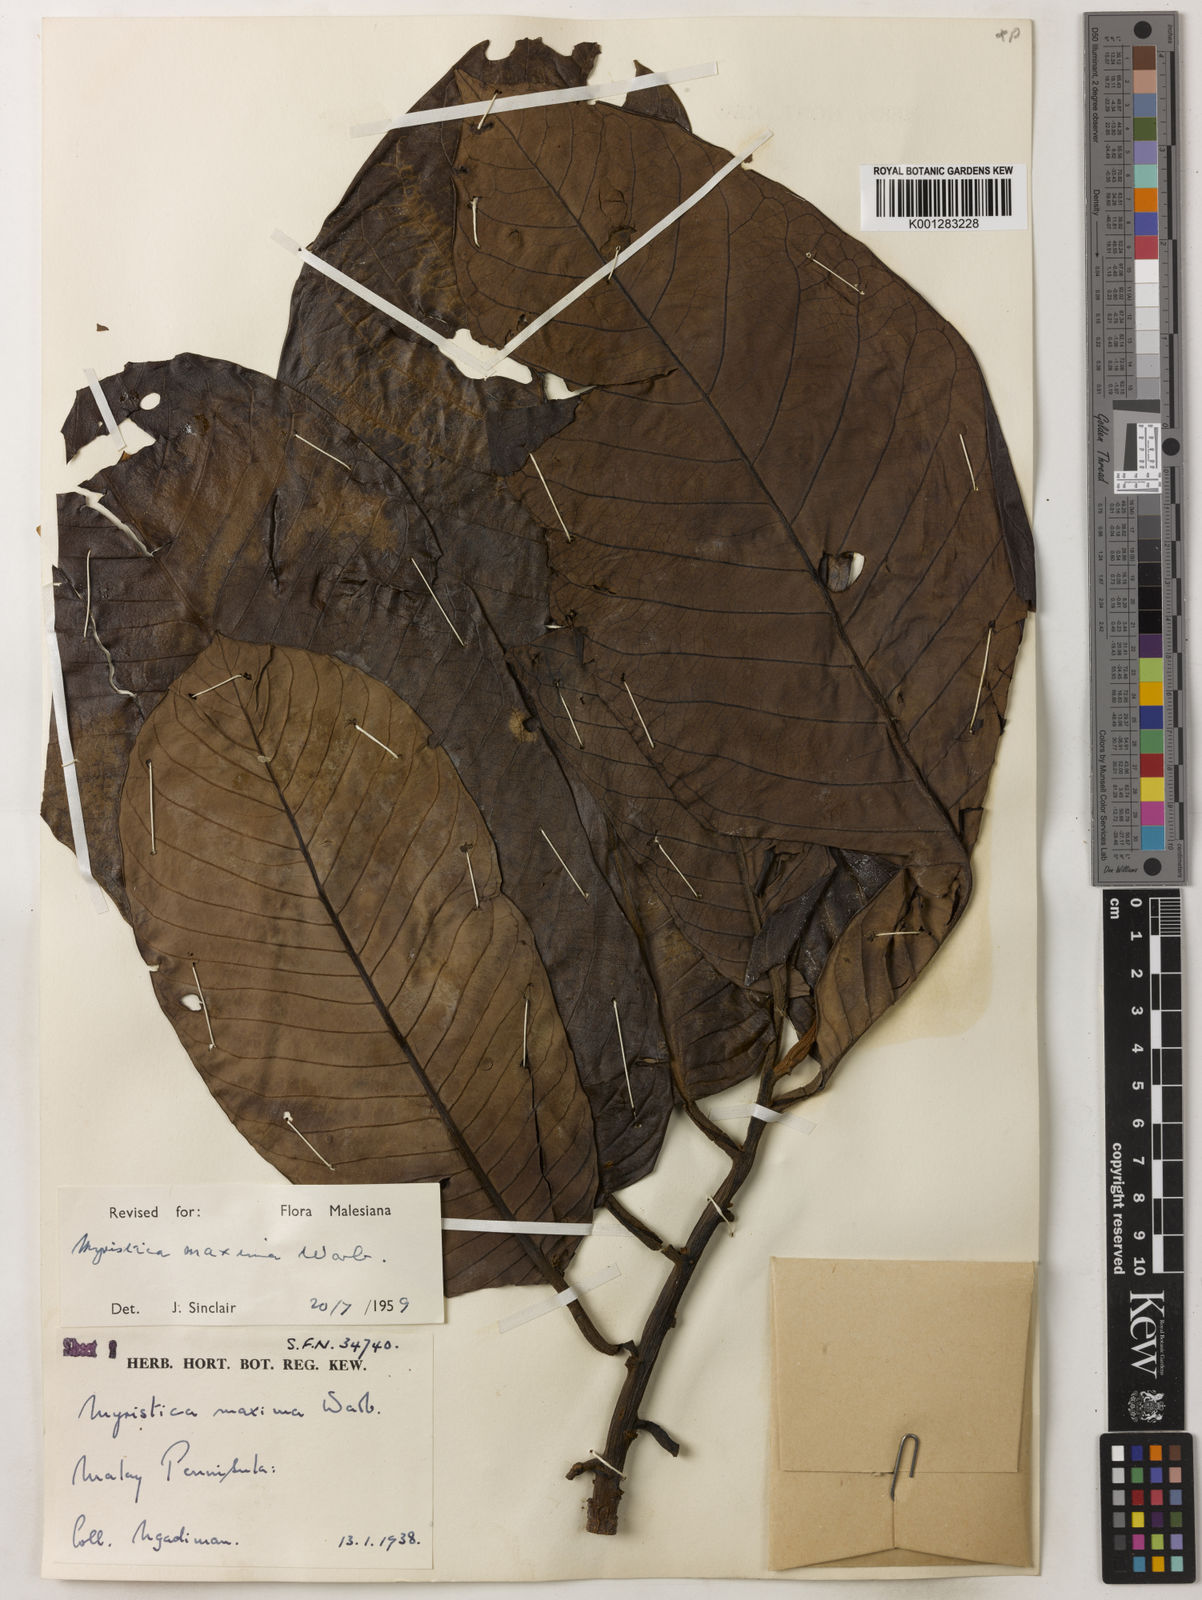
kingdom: Plantae
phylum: Tracheophyta
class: Magnoliopsida
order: Magnoliales
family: Myristicaceae
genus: Myristica
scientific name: Myristica maxima
